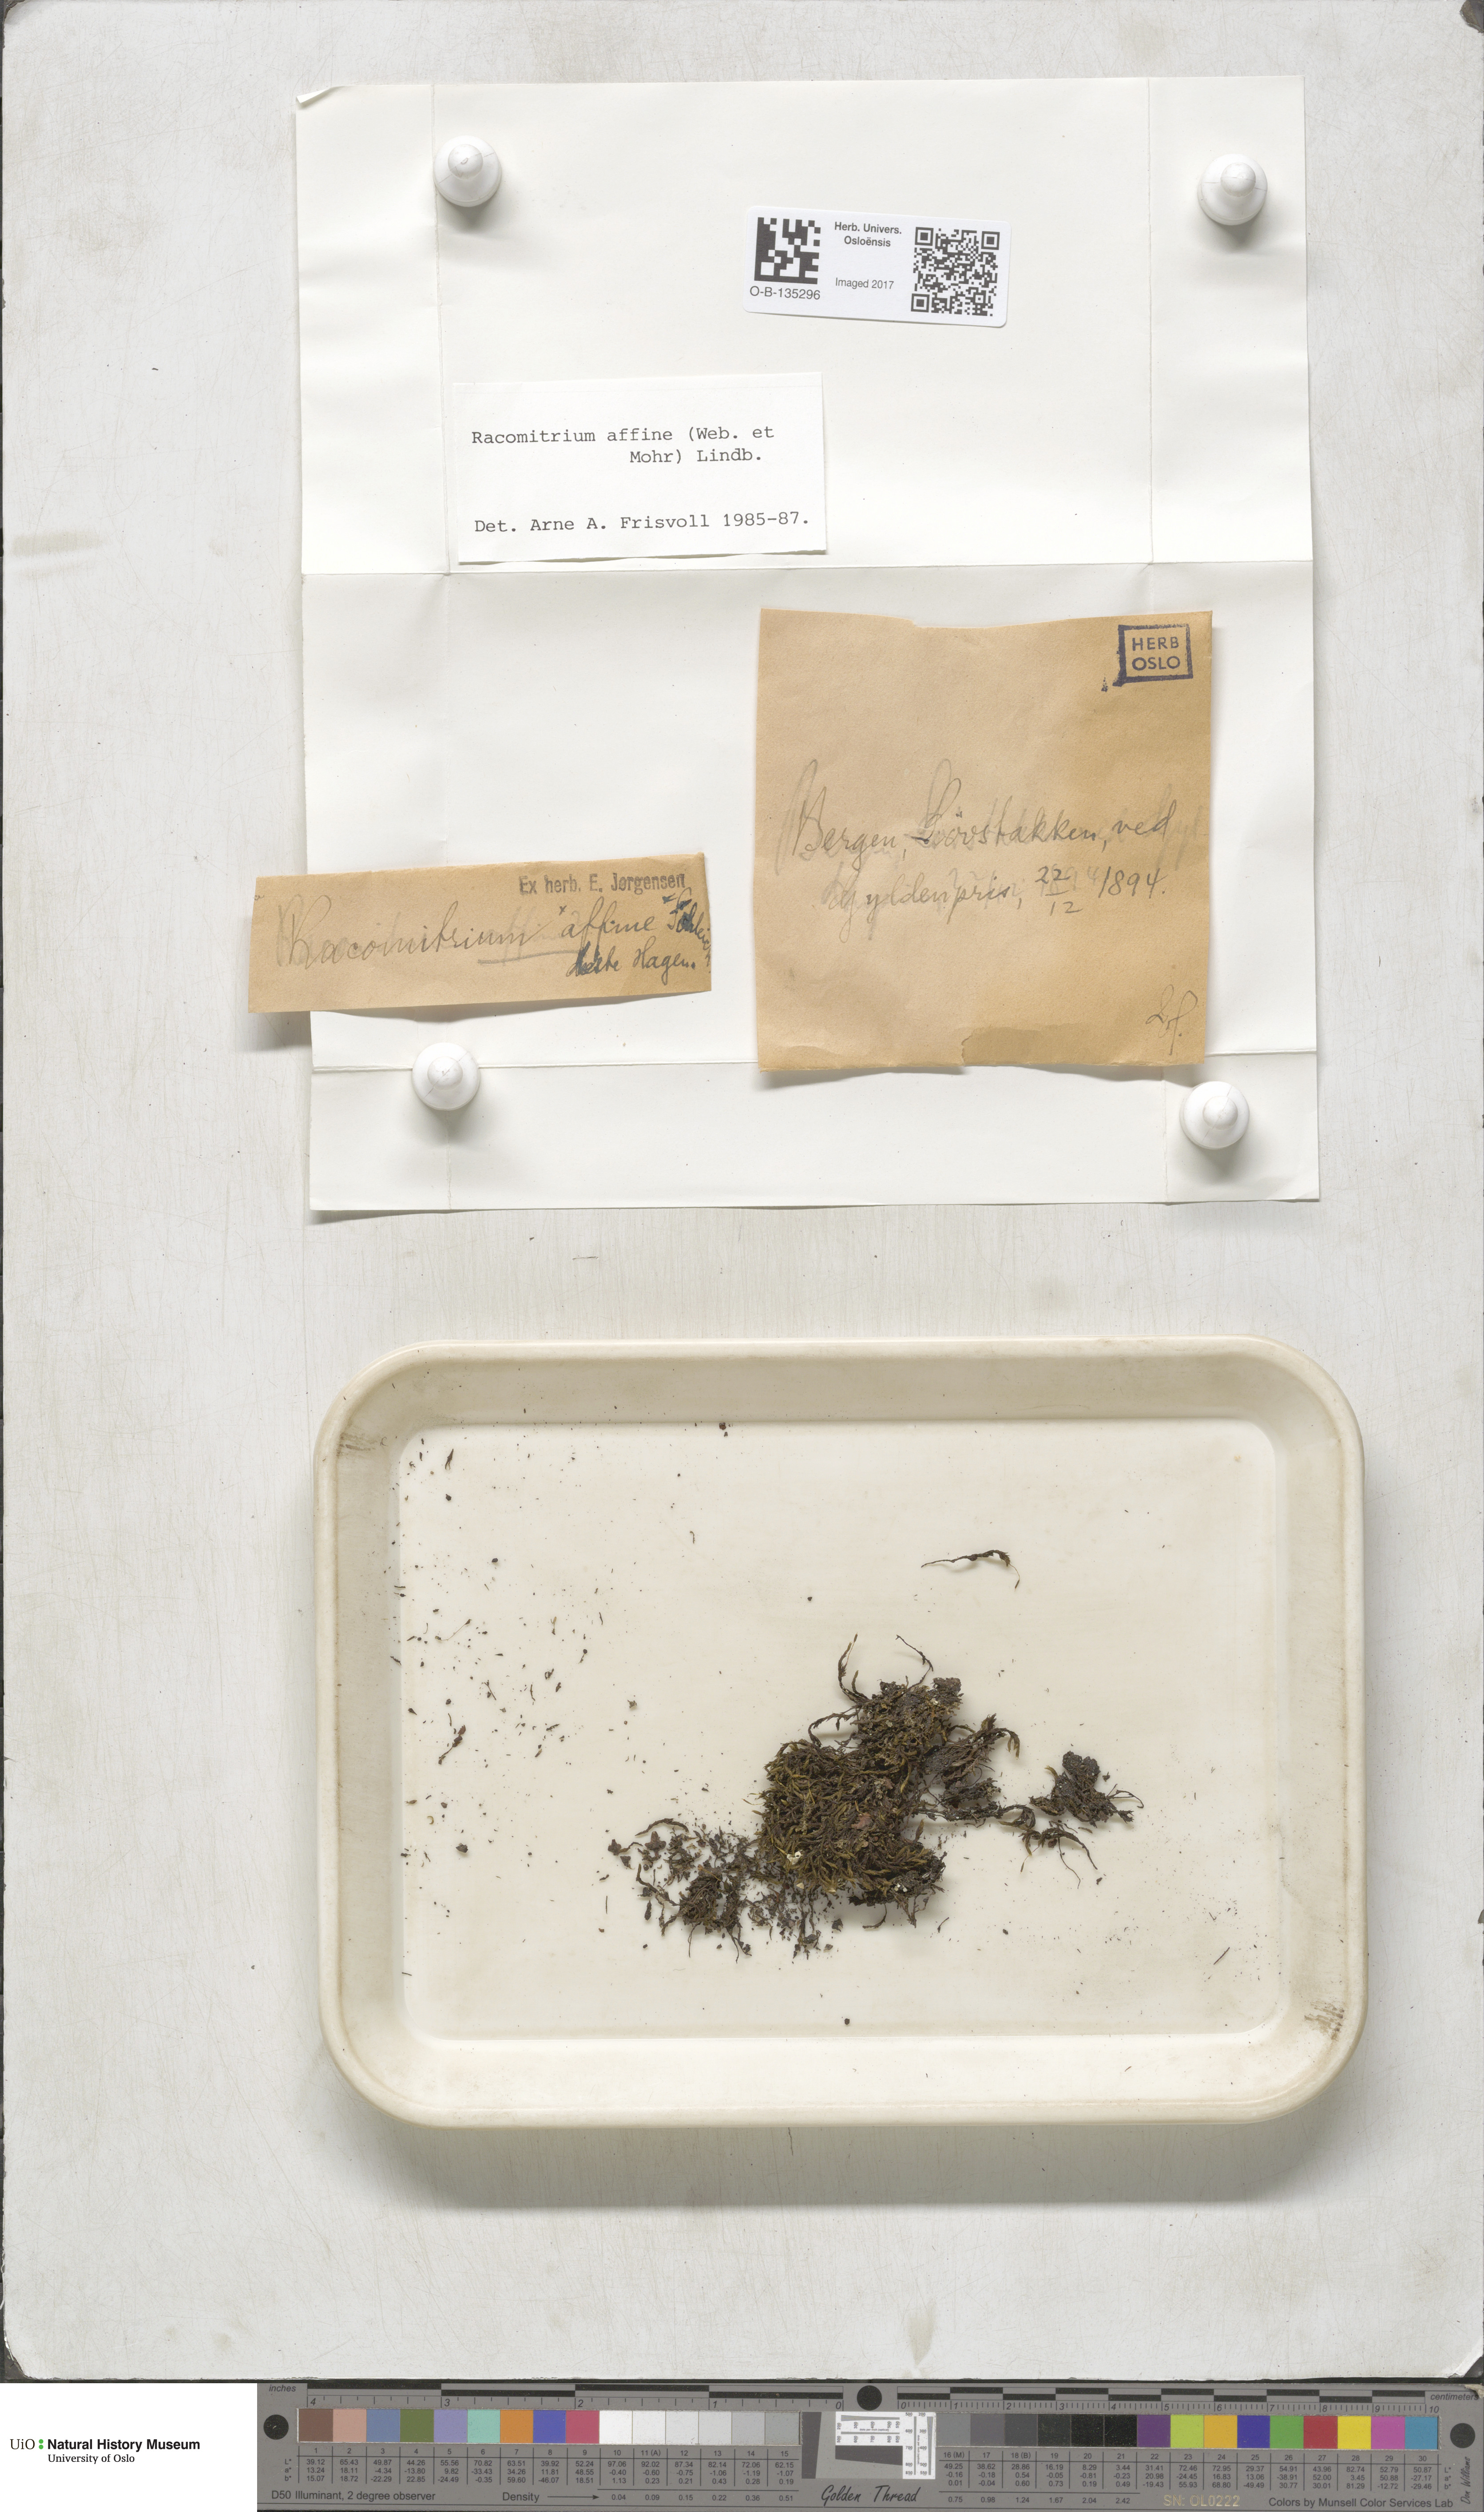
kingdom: Plantae
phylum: Bryophyta
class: Bryopsida
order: Grimmiales
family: Grimmiaceae
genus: Bucklandiella
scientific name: Bucklandiella affinis
